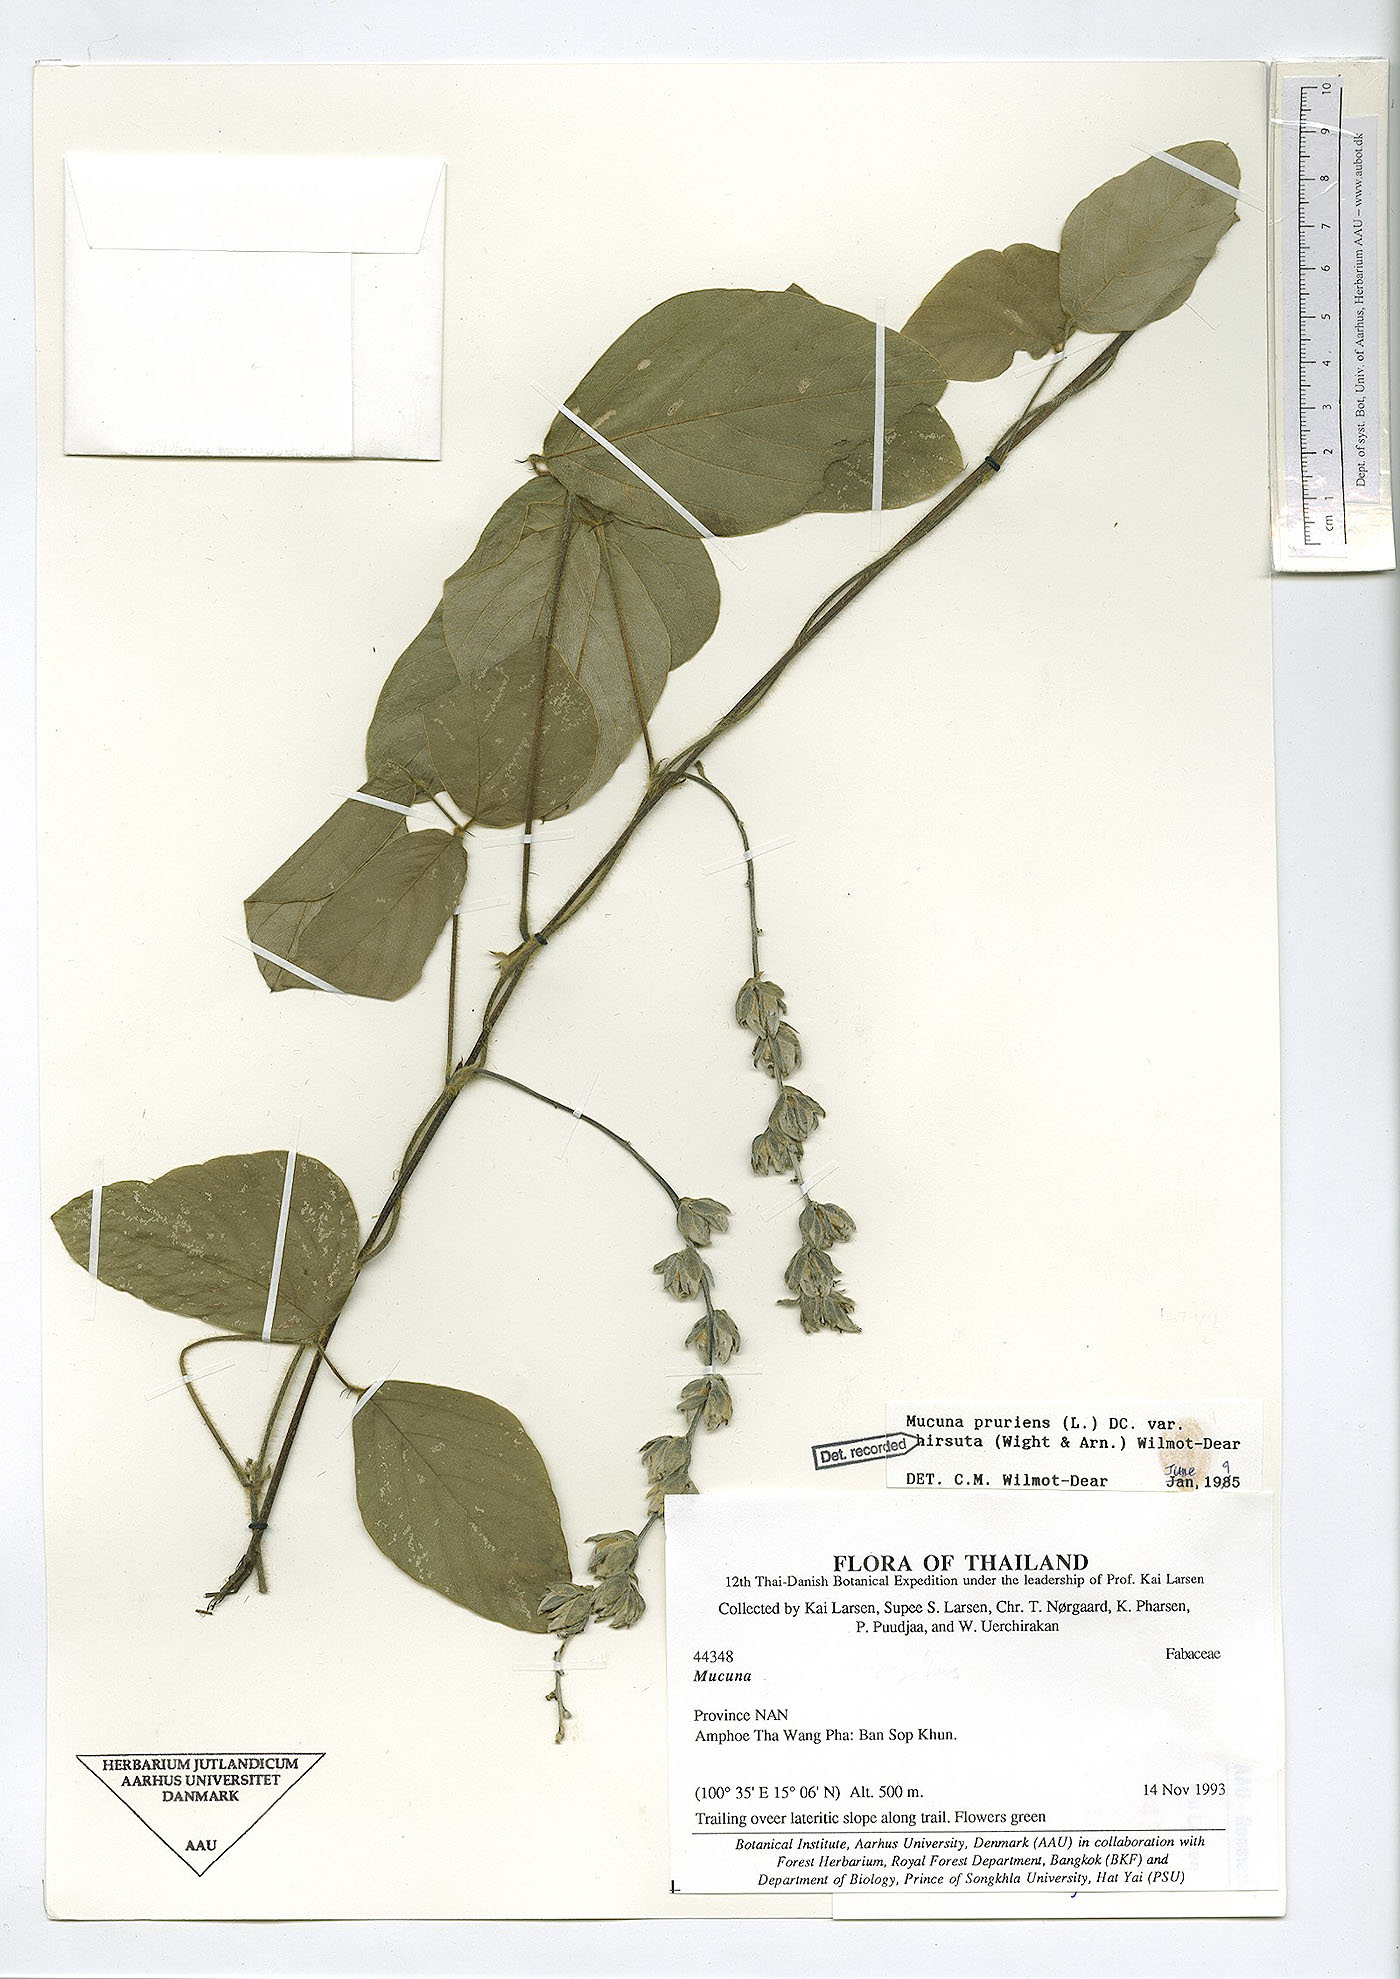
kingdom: Plantae
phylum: Tracheophyta
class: Magnoliopsida
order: Fabales
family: Fabaceae
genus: Mucuna
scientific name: Mucuna pruriens
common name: Cow-itch
